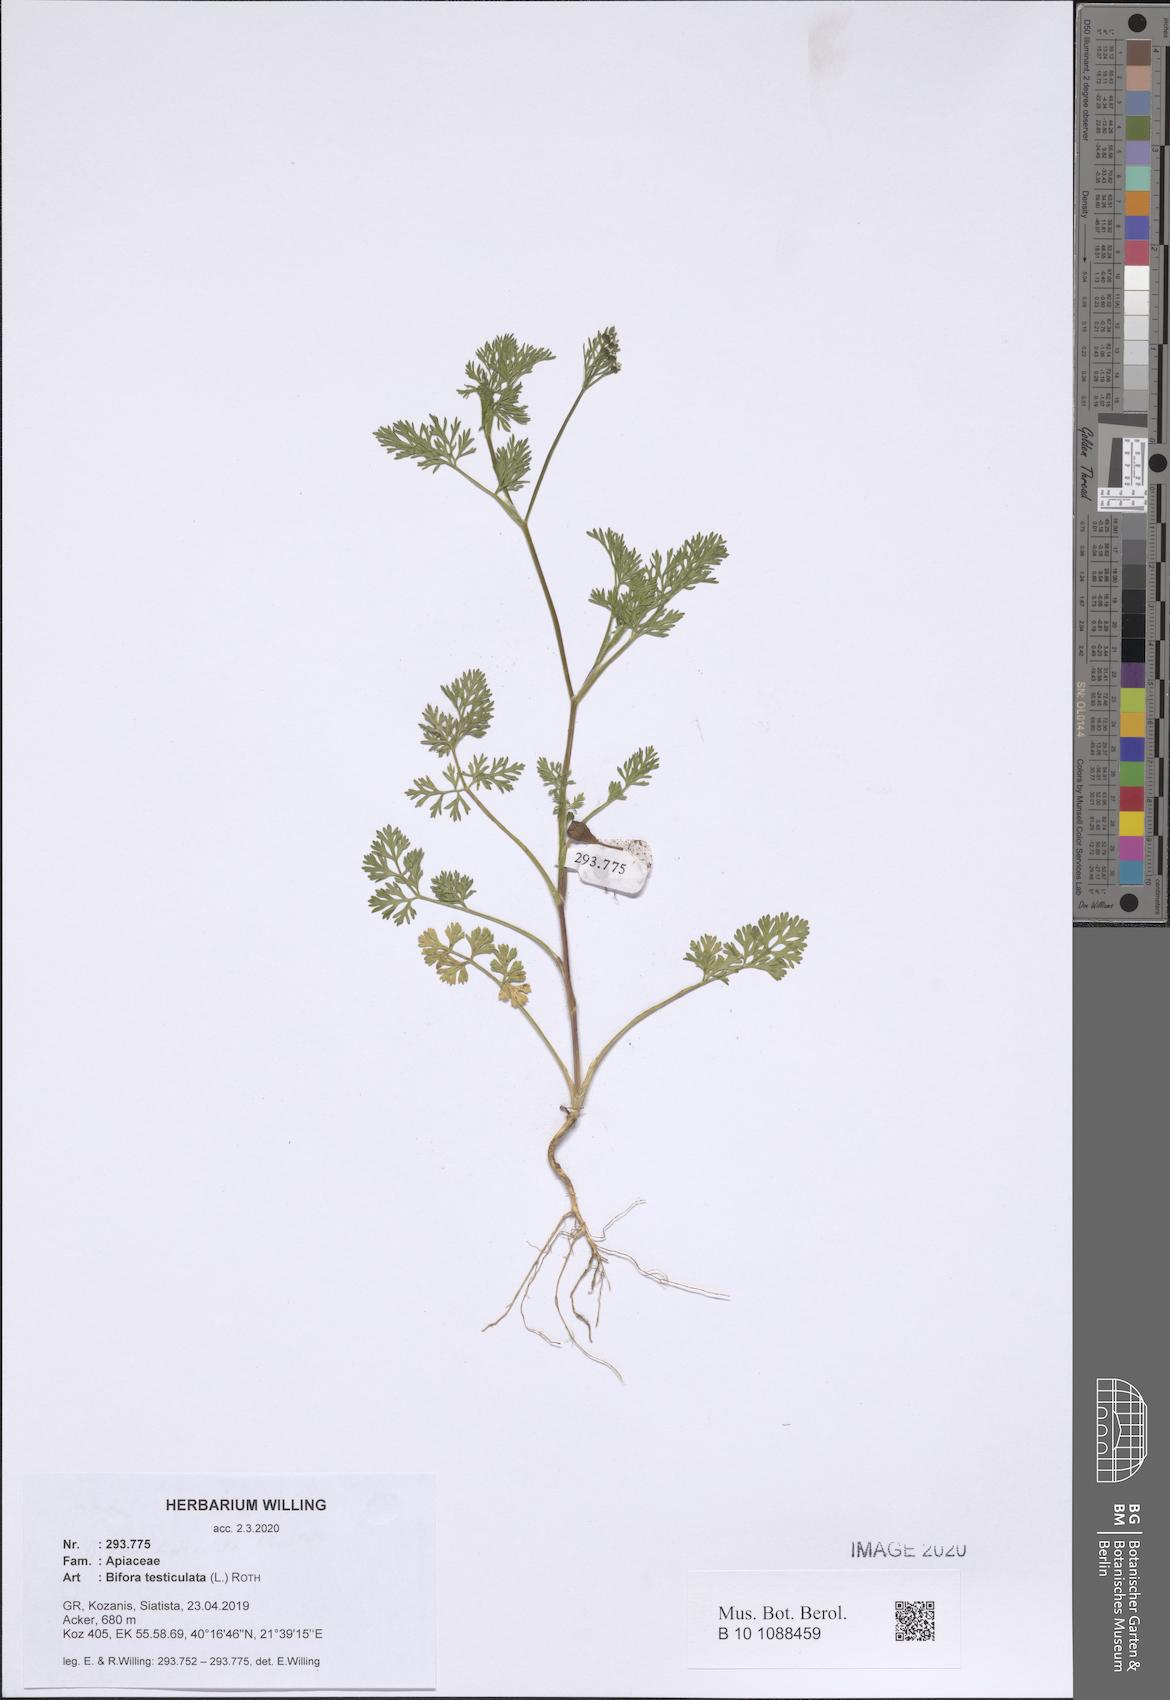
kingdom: Plantae
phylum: Tracheophyta
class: Magnoliopsida
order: Apiales
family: Apiaceae
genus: Bifora
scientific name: Bifora testiculata
